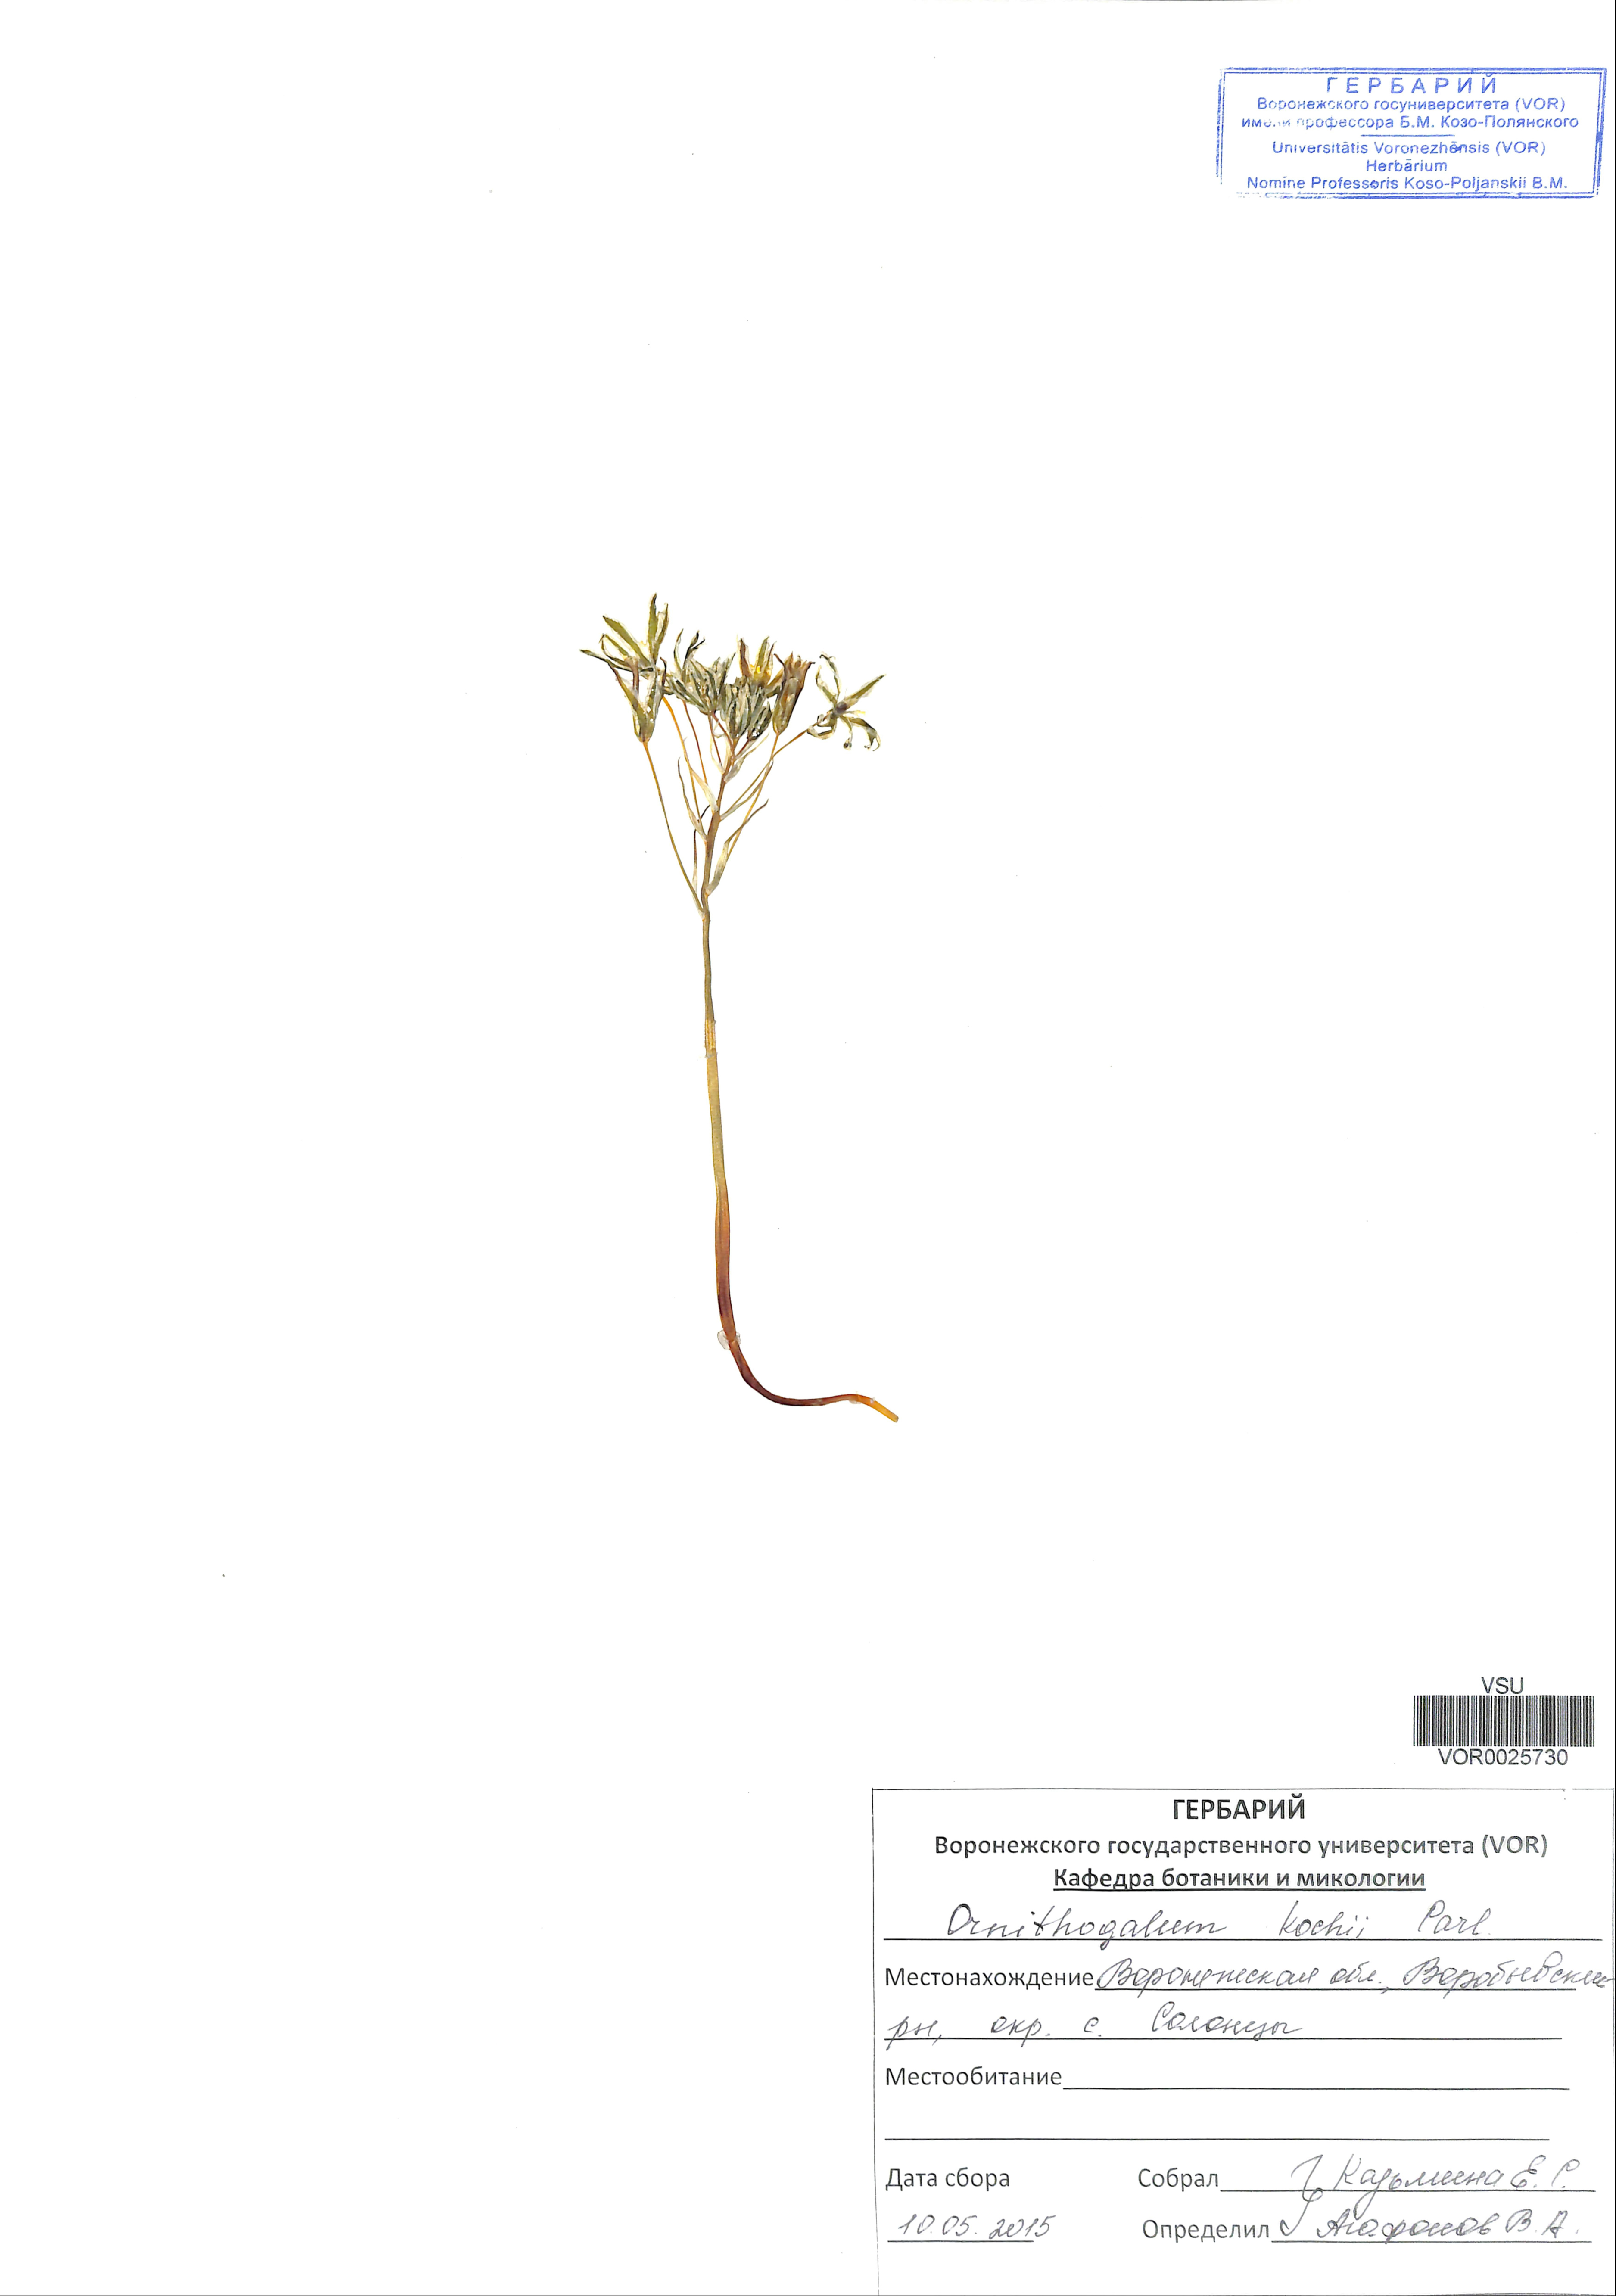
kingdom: Plantae
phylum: Tracheophyta
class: Liliopsida
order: Asparagales
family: Asparagaceae
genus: Ornithogalum
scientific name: Ornithogalum orthophyllum
